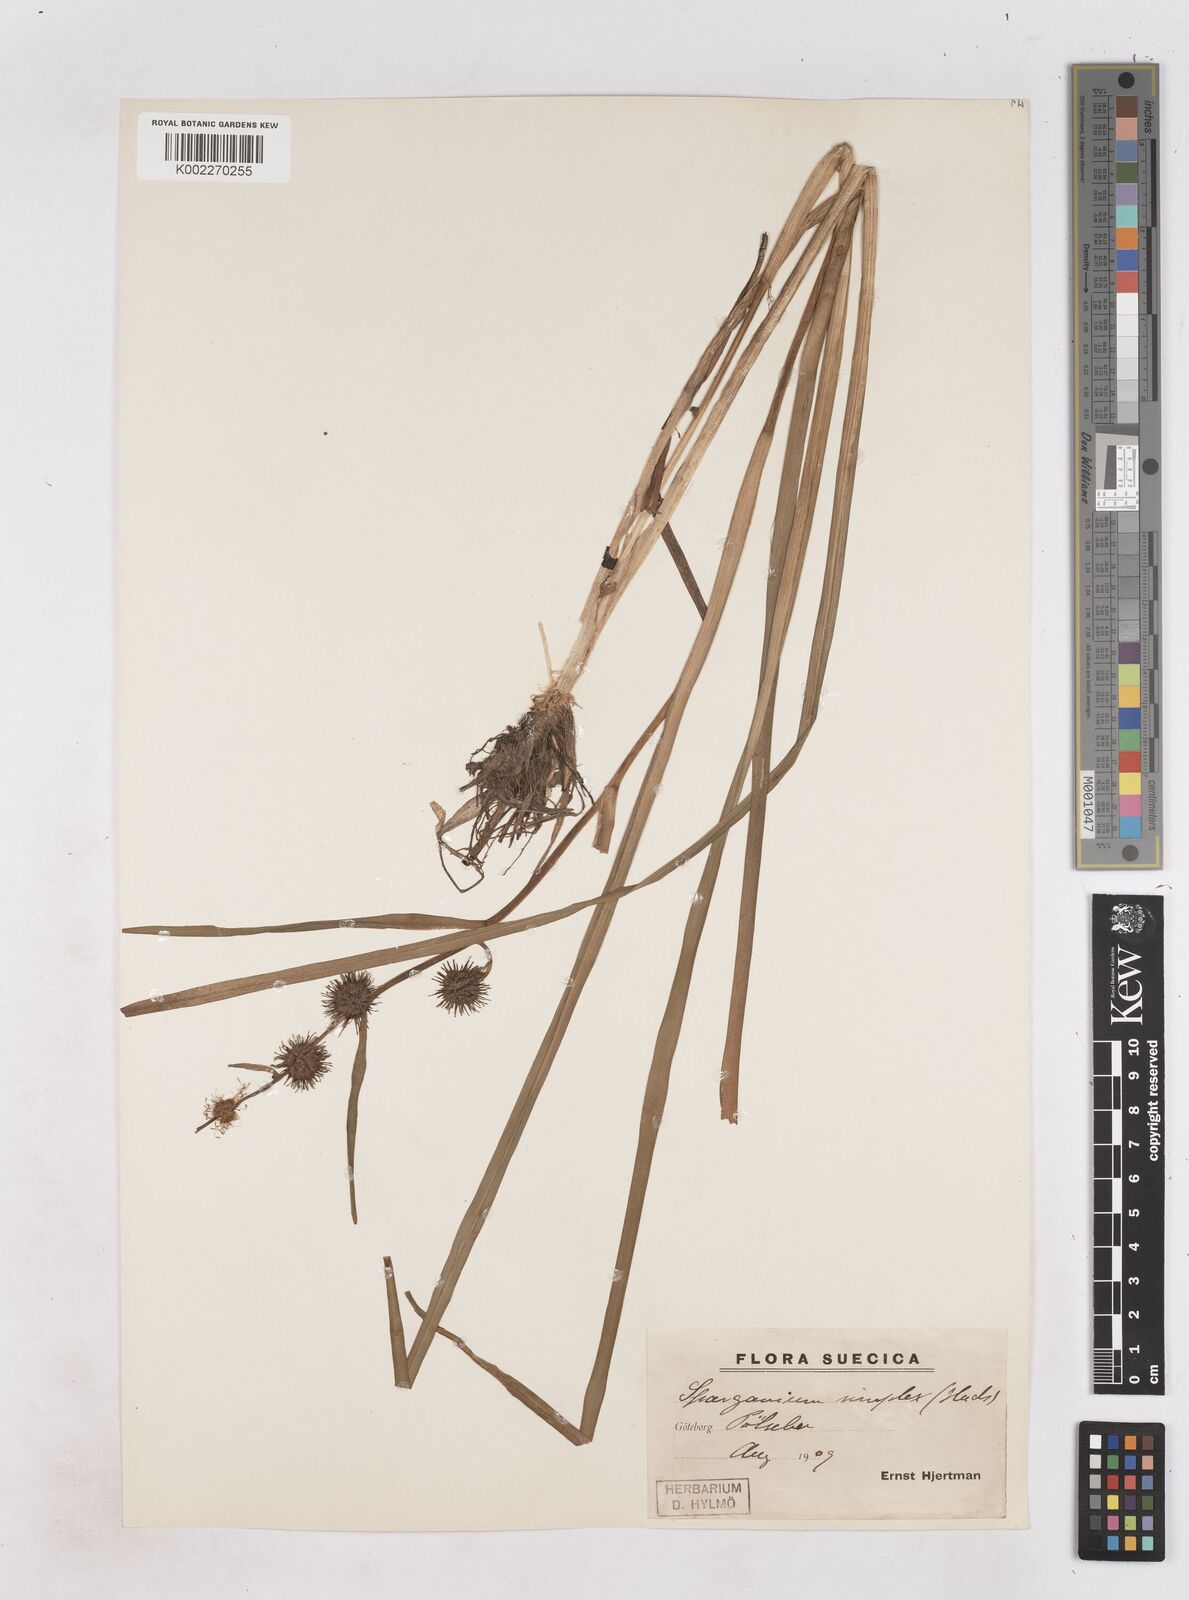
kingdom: Plantae
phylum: Tracheophyta
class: Liliopsida
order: Poales
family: Typhaceae
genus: Sparganium
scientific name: Sparganium emersum
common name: Unbranched bur-reed
